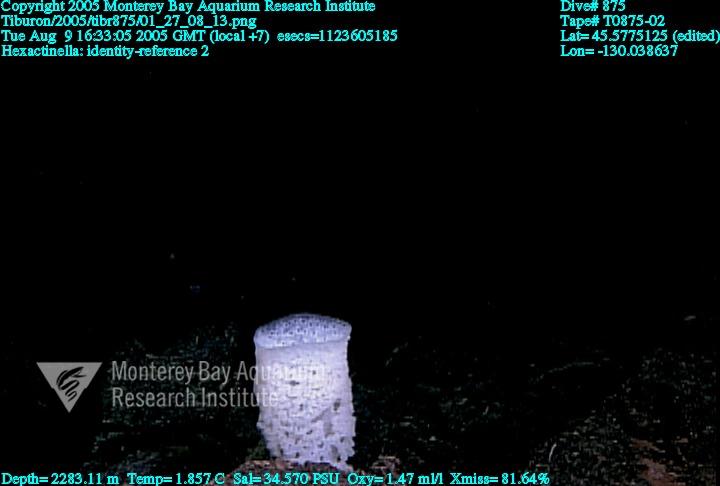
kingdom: Animalia
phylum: Porifera
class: Hexactinellida
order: Sceptrulophora
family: Tretodictyidae
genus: Hexactinella
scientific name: Hexactinella
